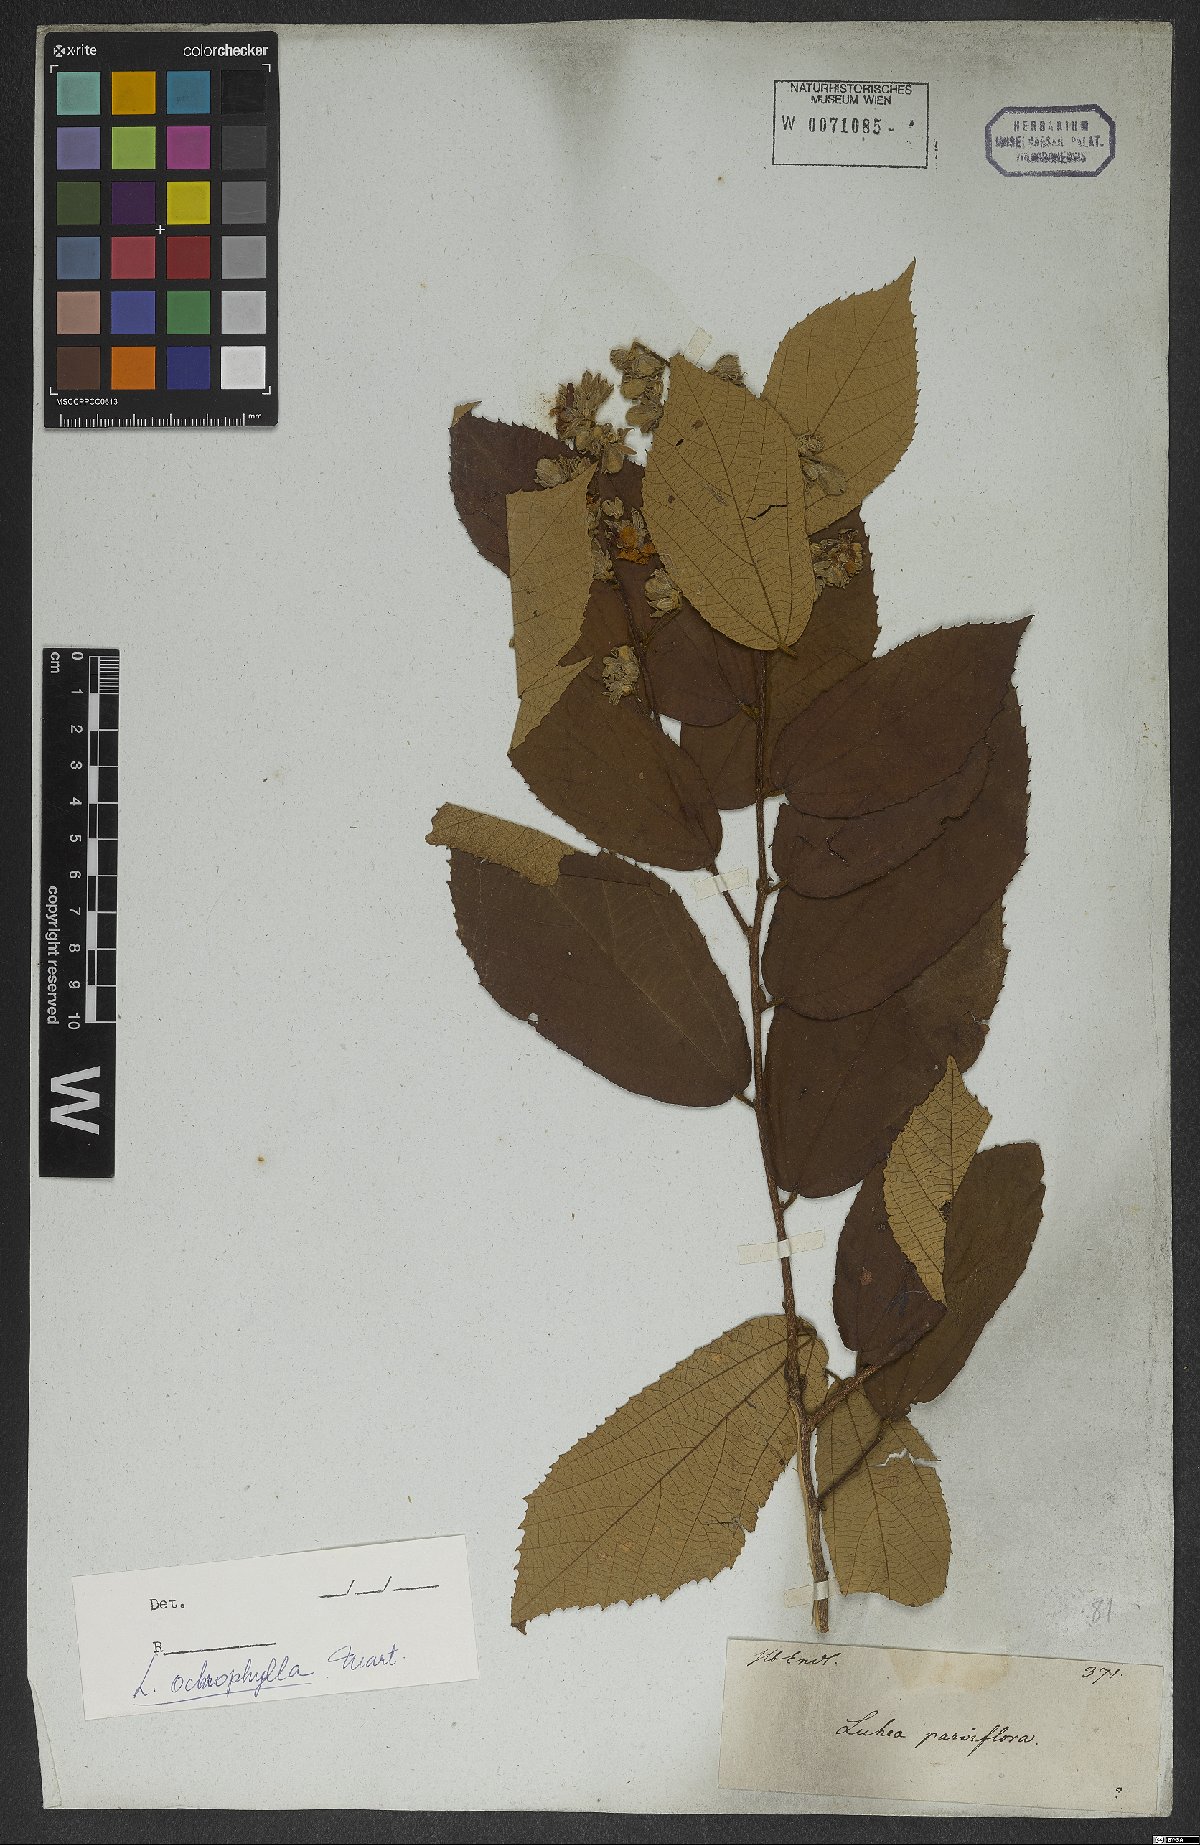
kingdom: Plantae
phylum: Tracheophyta
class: Magnoliopsida
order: Malvales
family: Malvaceae
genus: Luehea
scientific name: Luehea ochrophylla
